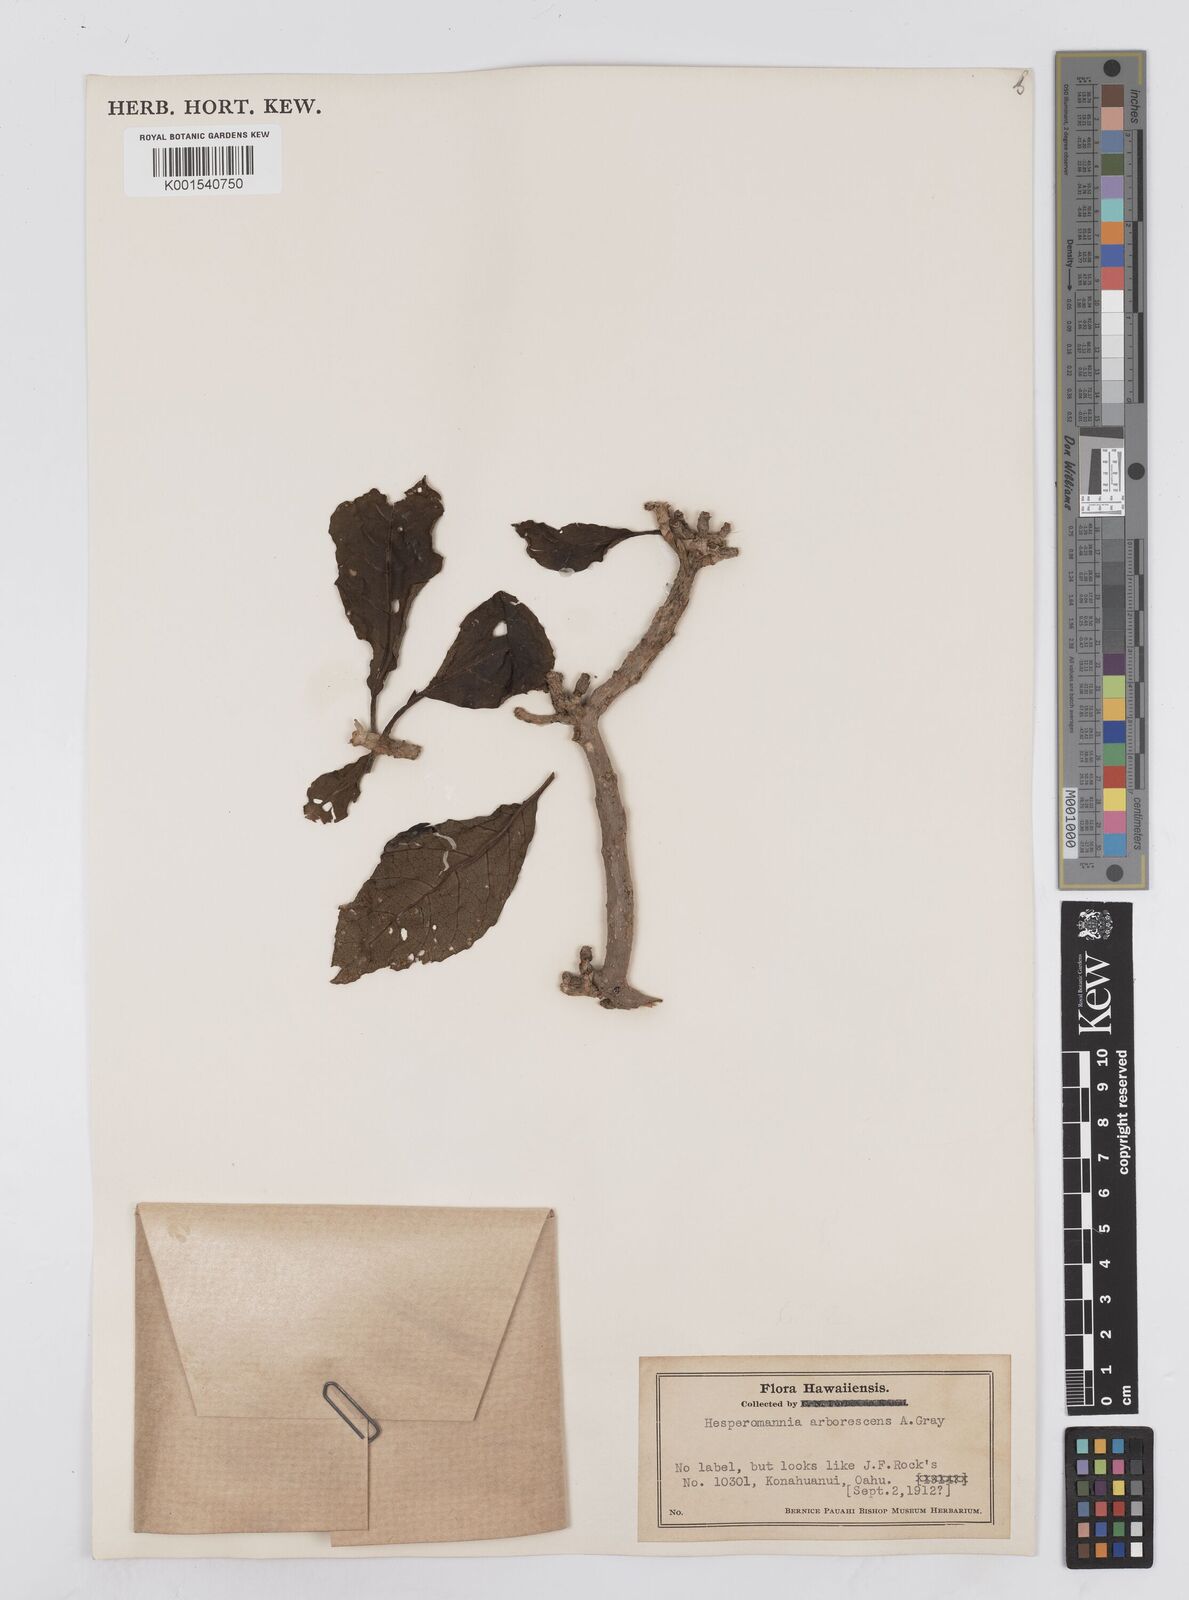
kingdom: Plantae
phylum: Tracheophyta
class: Magnoliopsida
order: Asterales
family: Asteraceae
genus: Hesperomannia
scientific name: Hesperomannia
